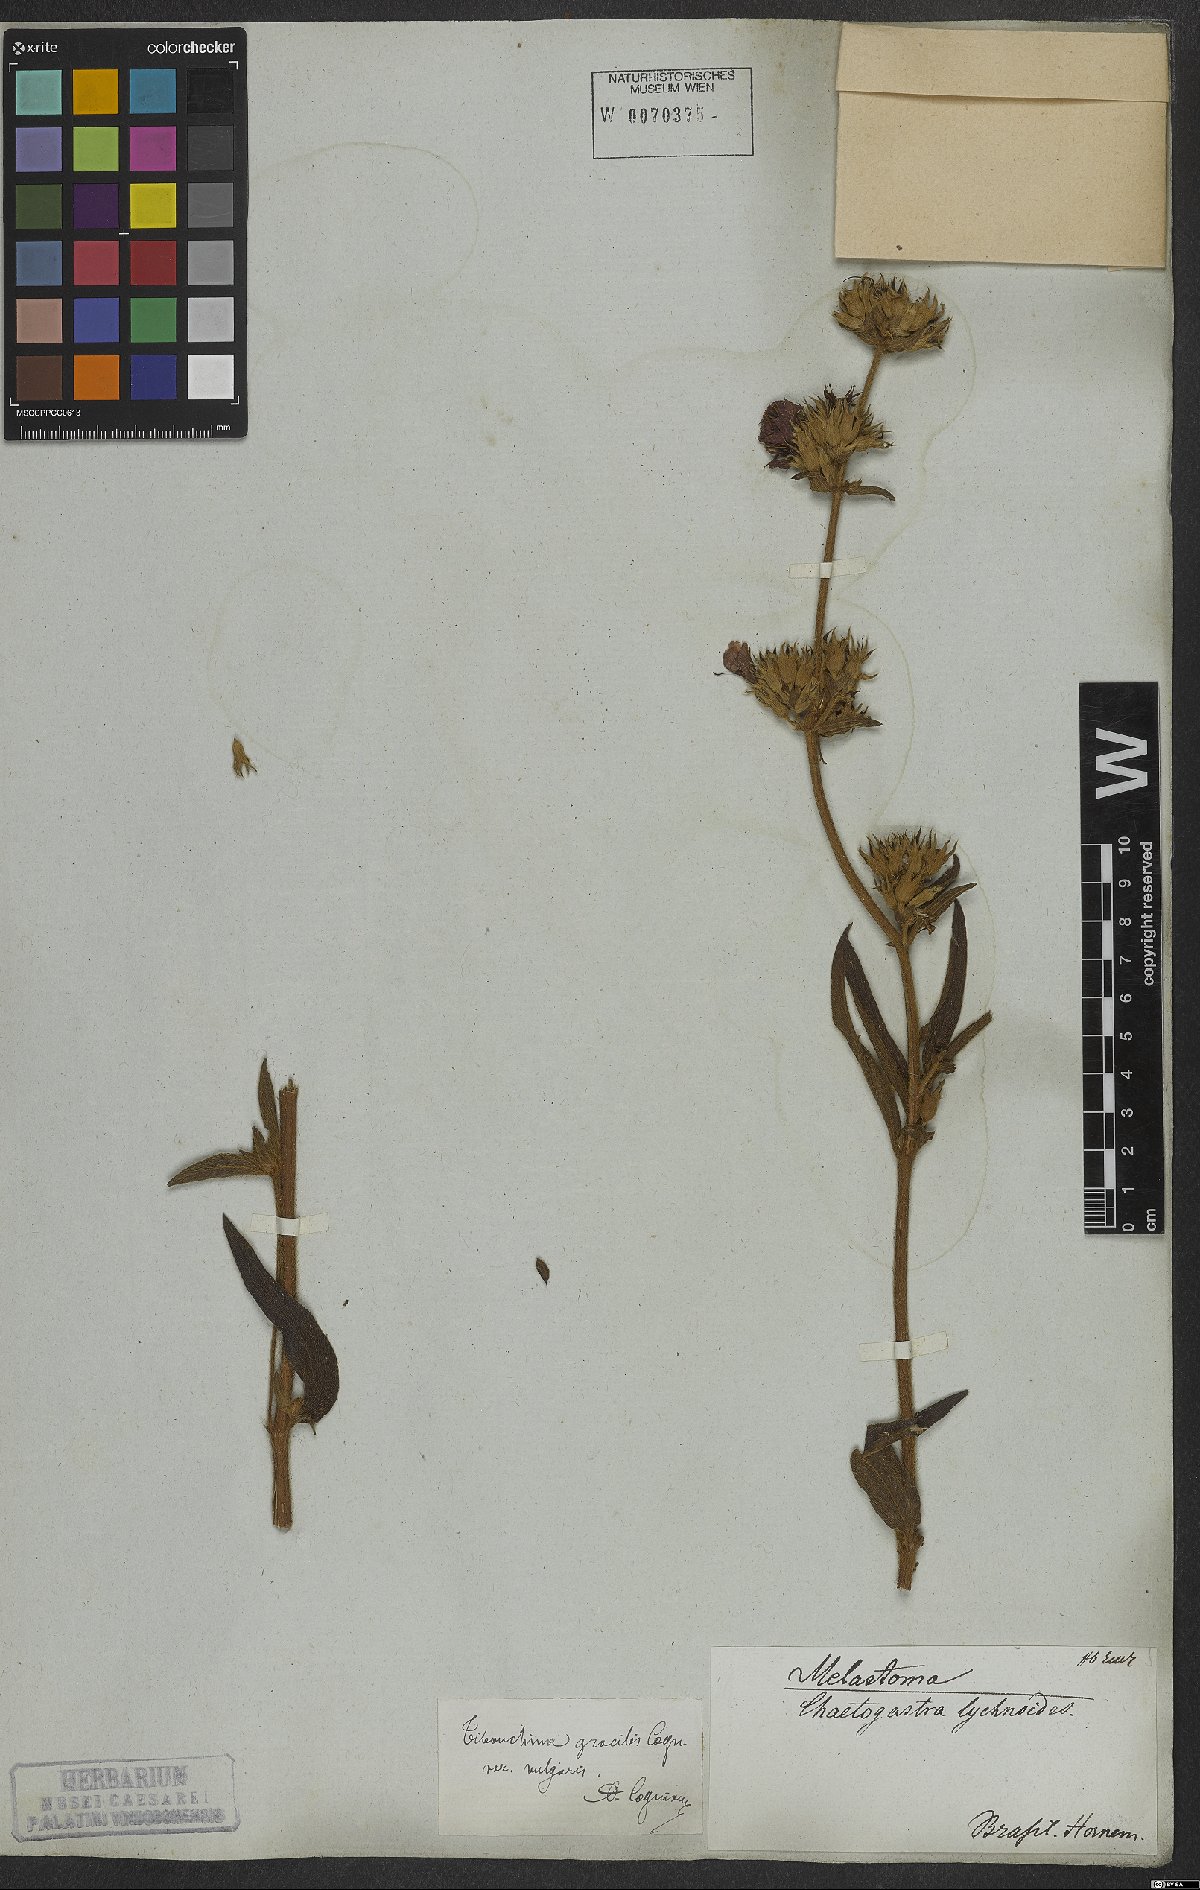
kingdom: Plantae
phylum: Tracheophyta
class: Magnoliopsida
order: Myrtales
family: Melastomataceae
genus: Chaetogastra
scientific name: Chaetogastra gracilis
